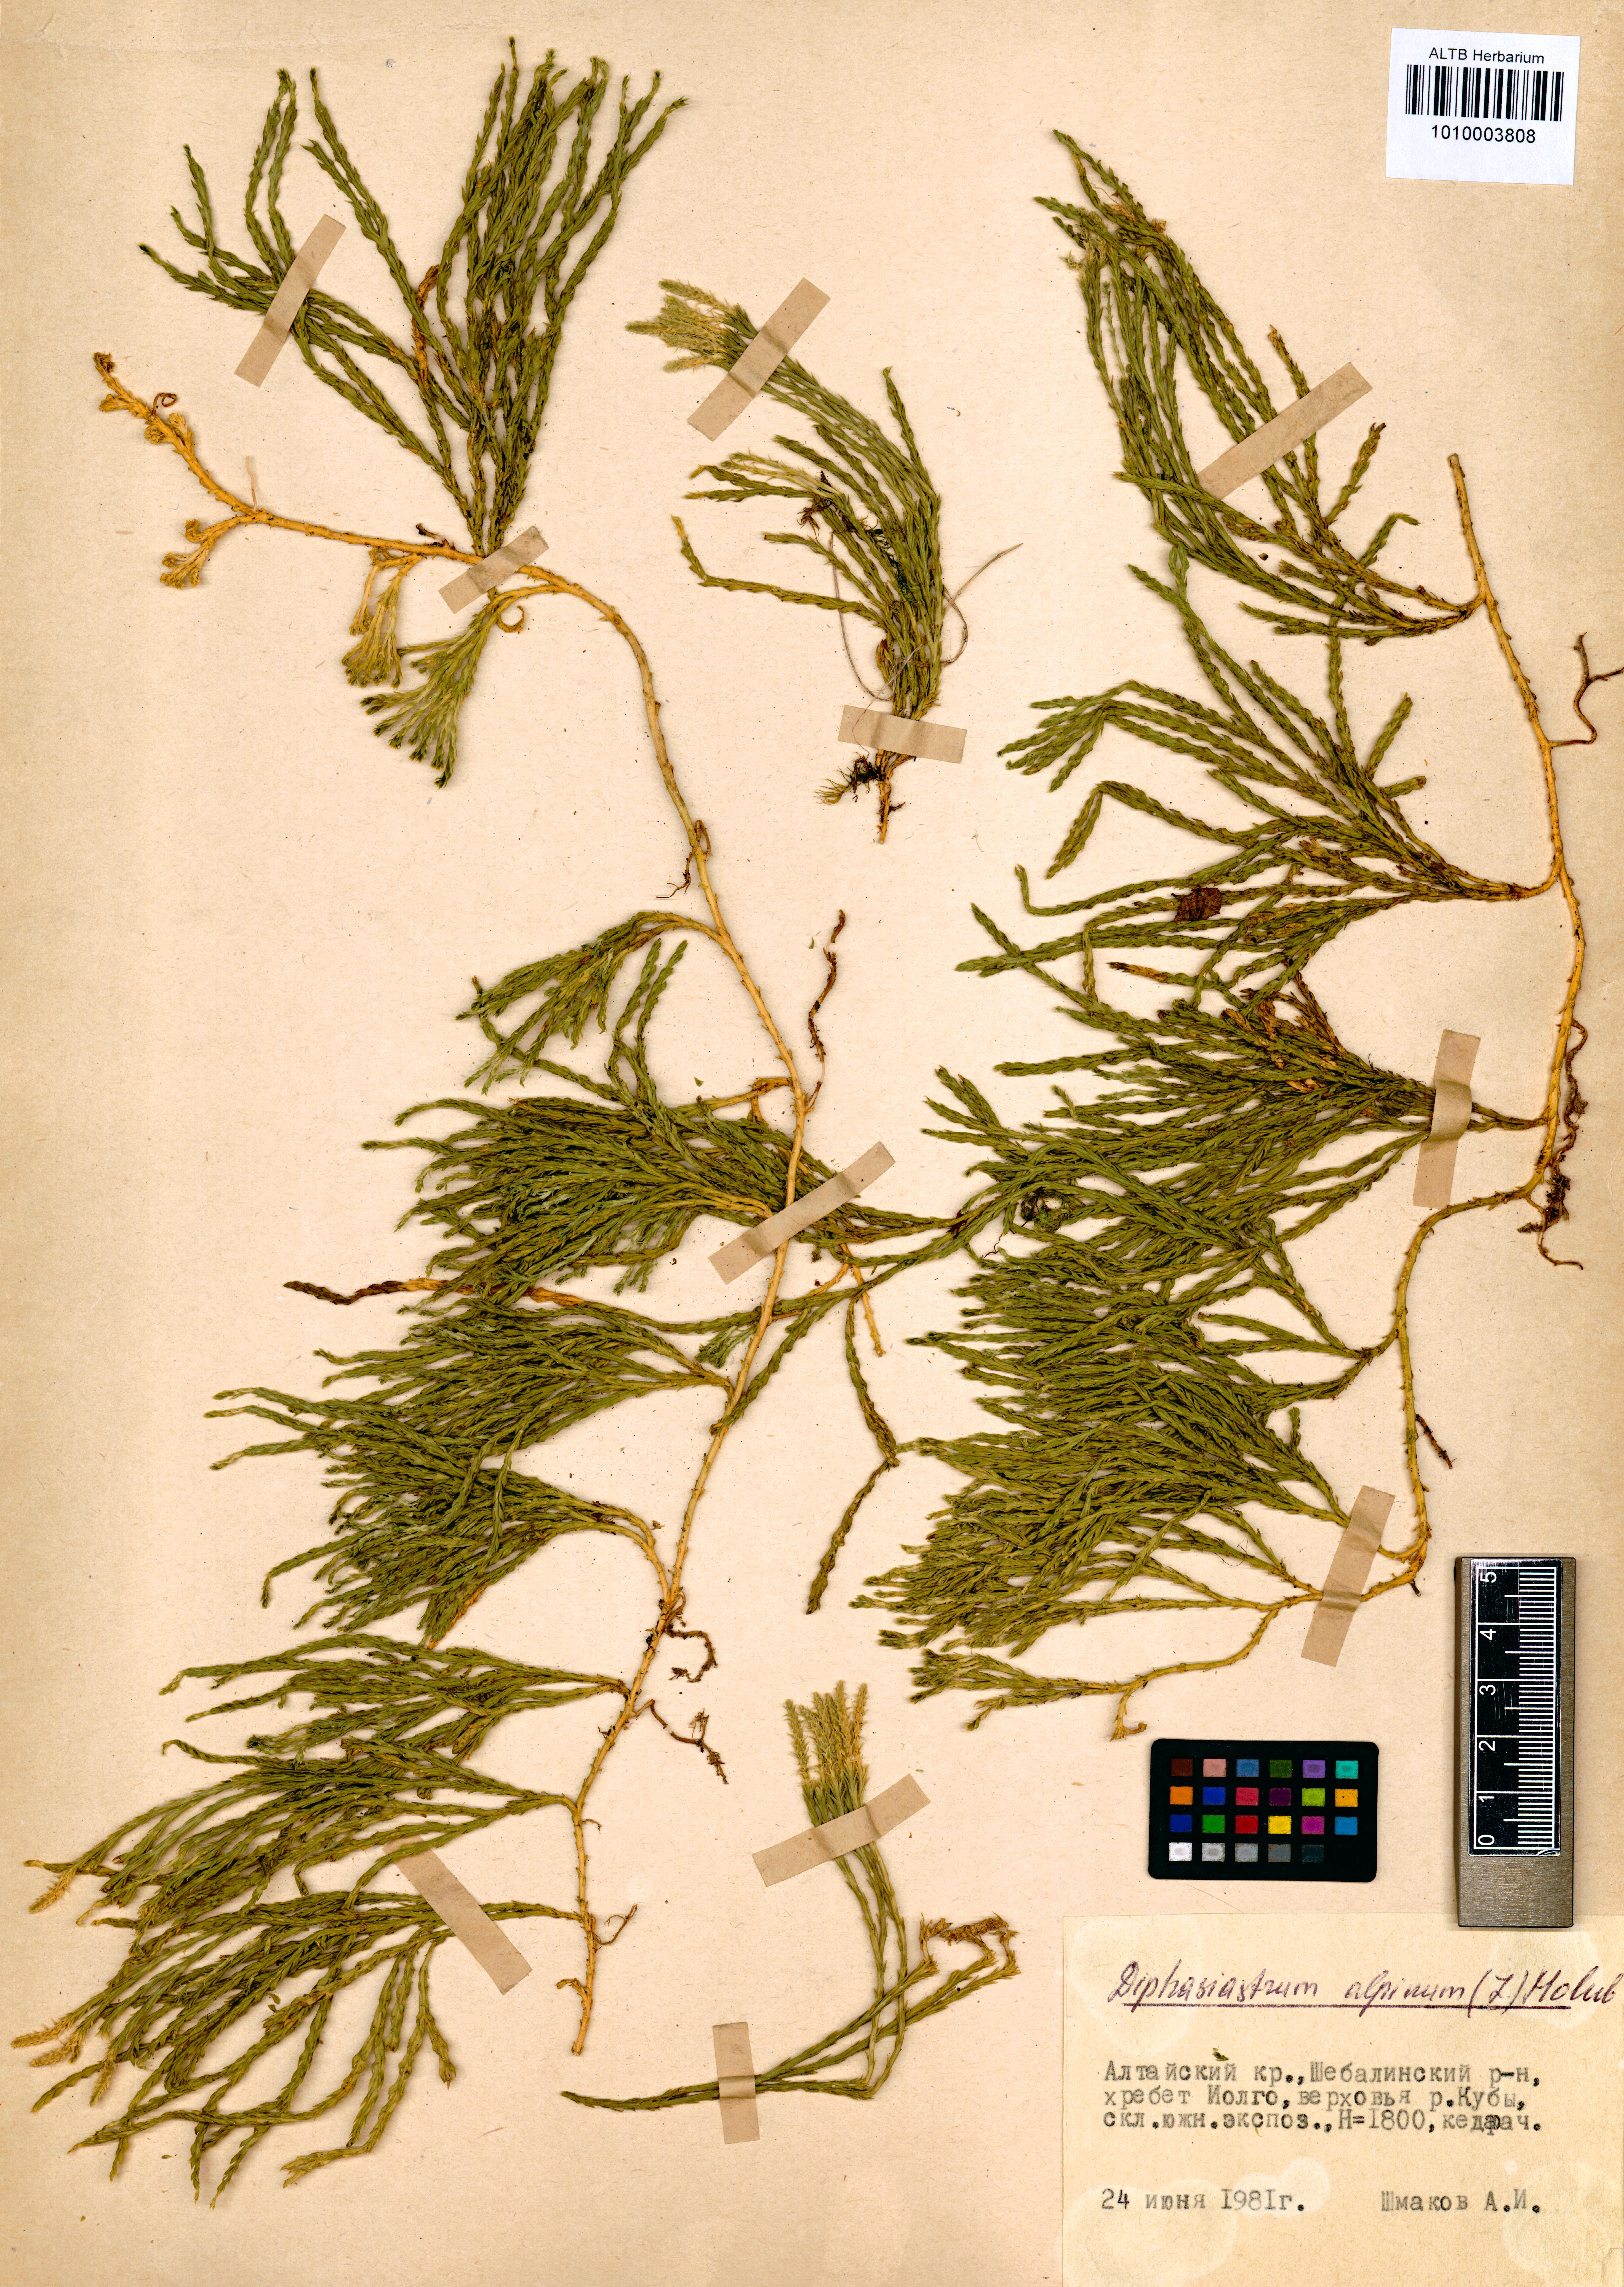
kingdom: Plantae
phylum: Tracheophyta
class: Lycopodiopsida
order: Lycopodiales
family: Lycopodiaceae
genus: Diphasiastrum
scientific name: Diphasiastrum alpinum
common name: Alpine clubmoss
